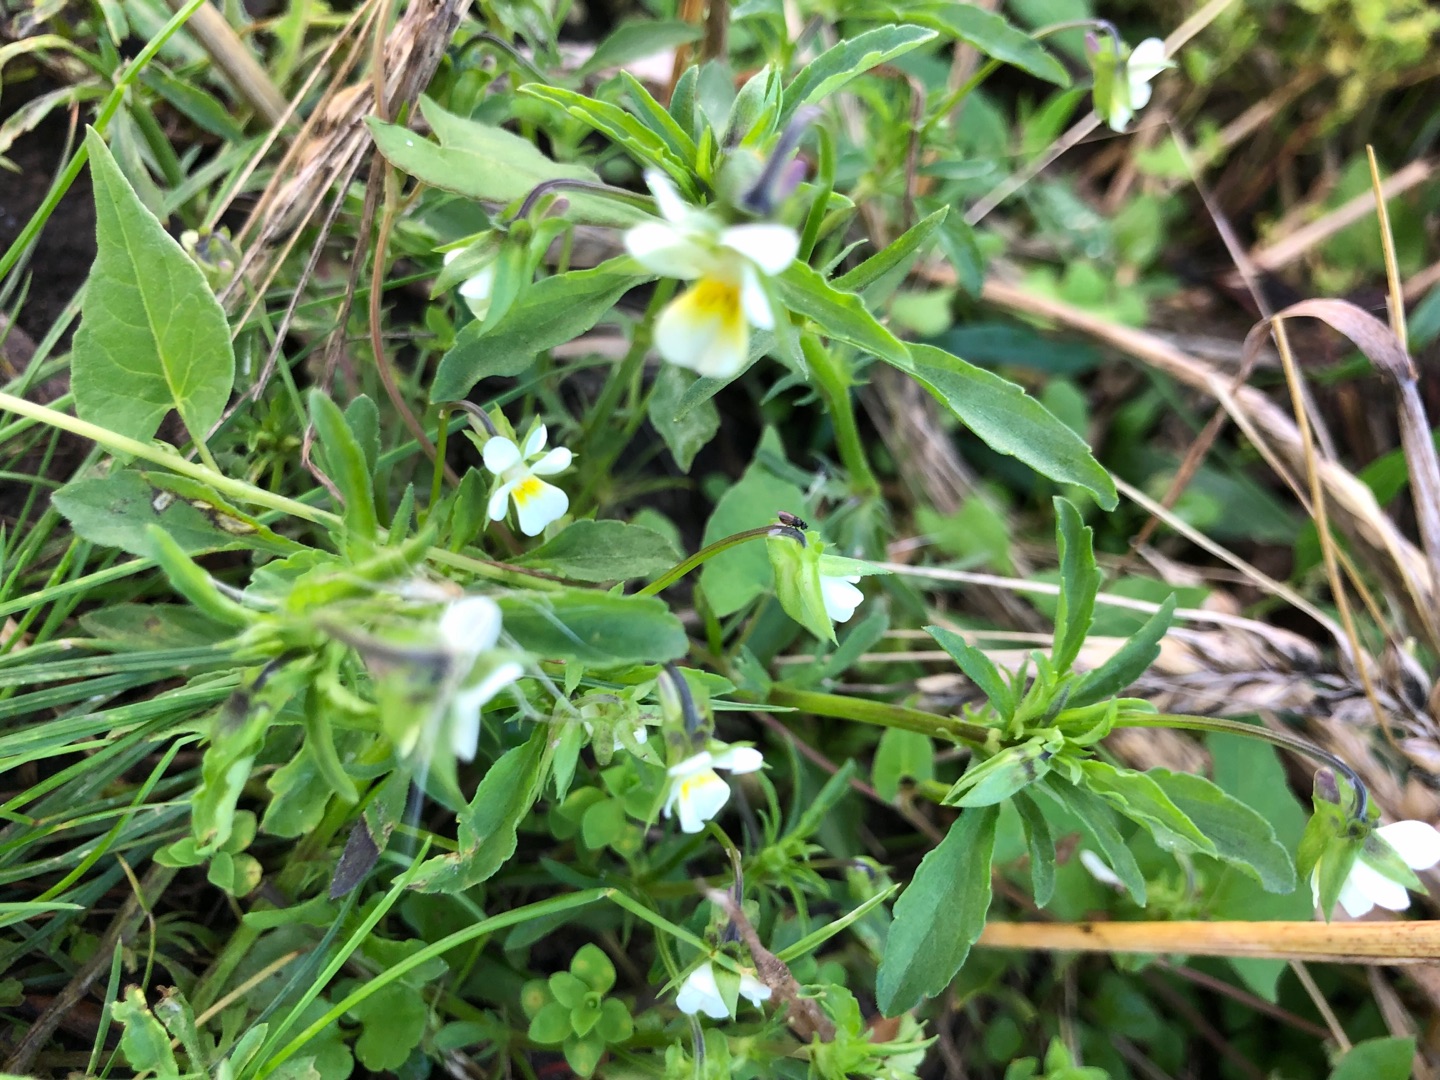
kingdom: Plantae
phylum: Tracheophyta
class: Magnoliopsida
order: Malpighiales
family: Violaceae
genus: Viola
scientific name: Viola arvensis
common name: Ager-stedmoderblomst
